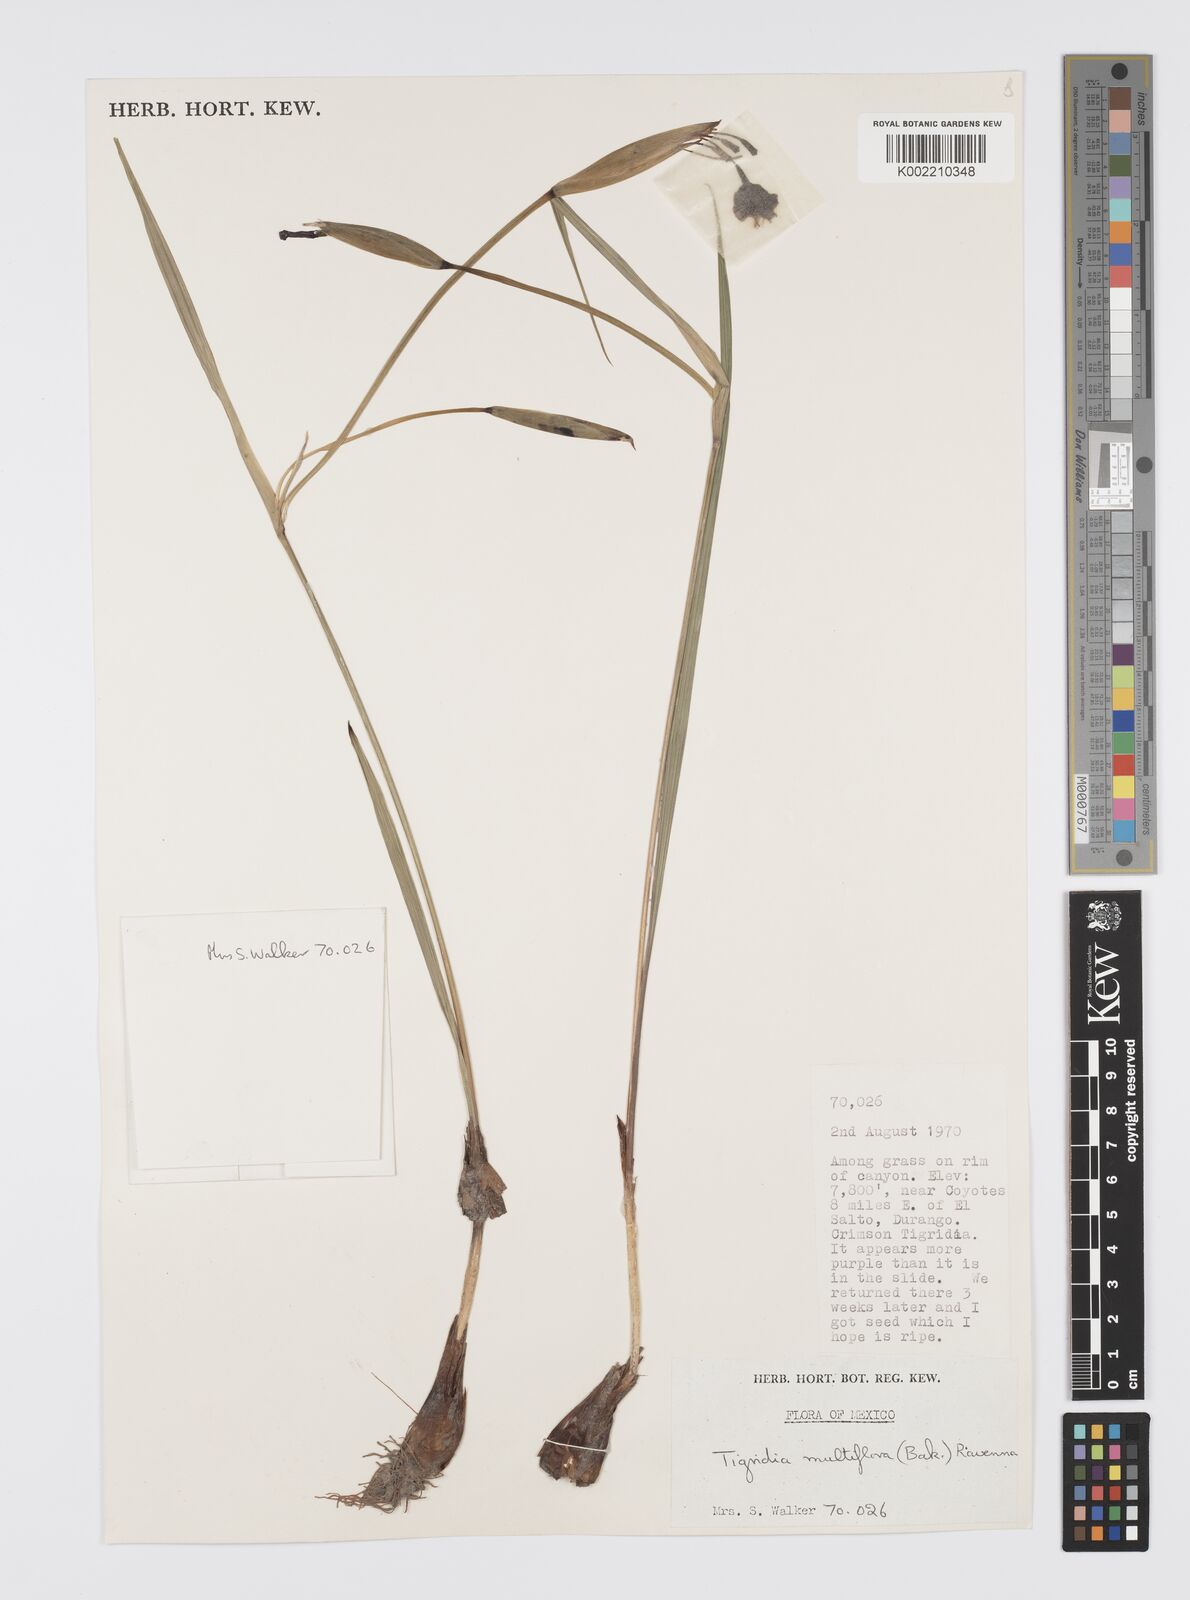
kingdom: Plantae
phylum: Tracheophyta
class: Liliopsida
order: Asparagales
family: Iridaceae
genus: Tigridia
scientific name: Tigridia multiflora
